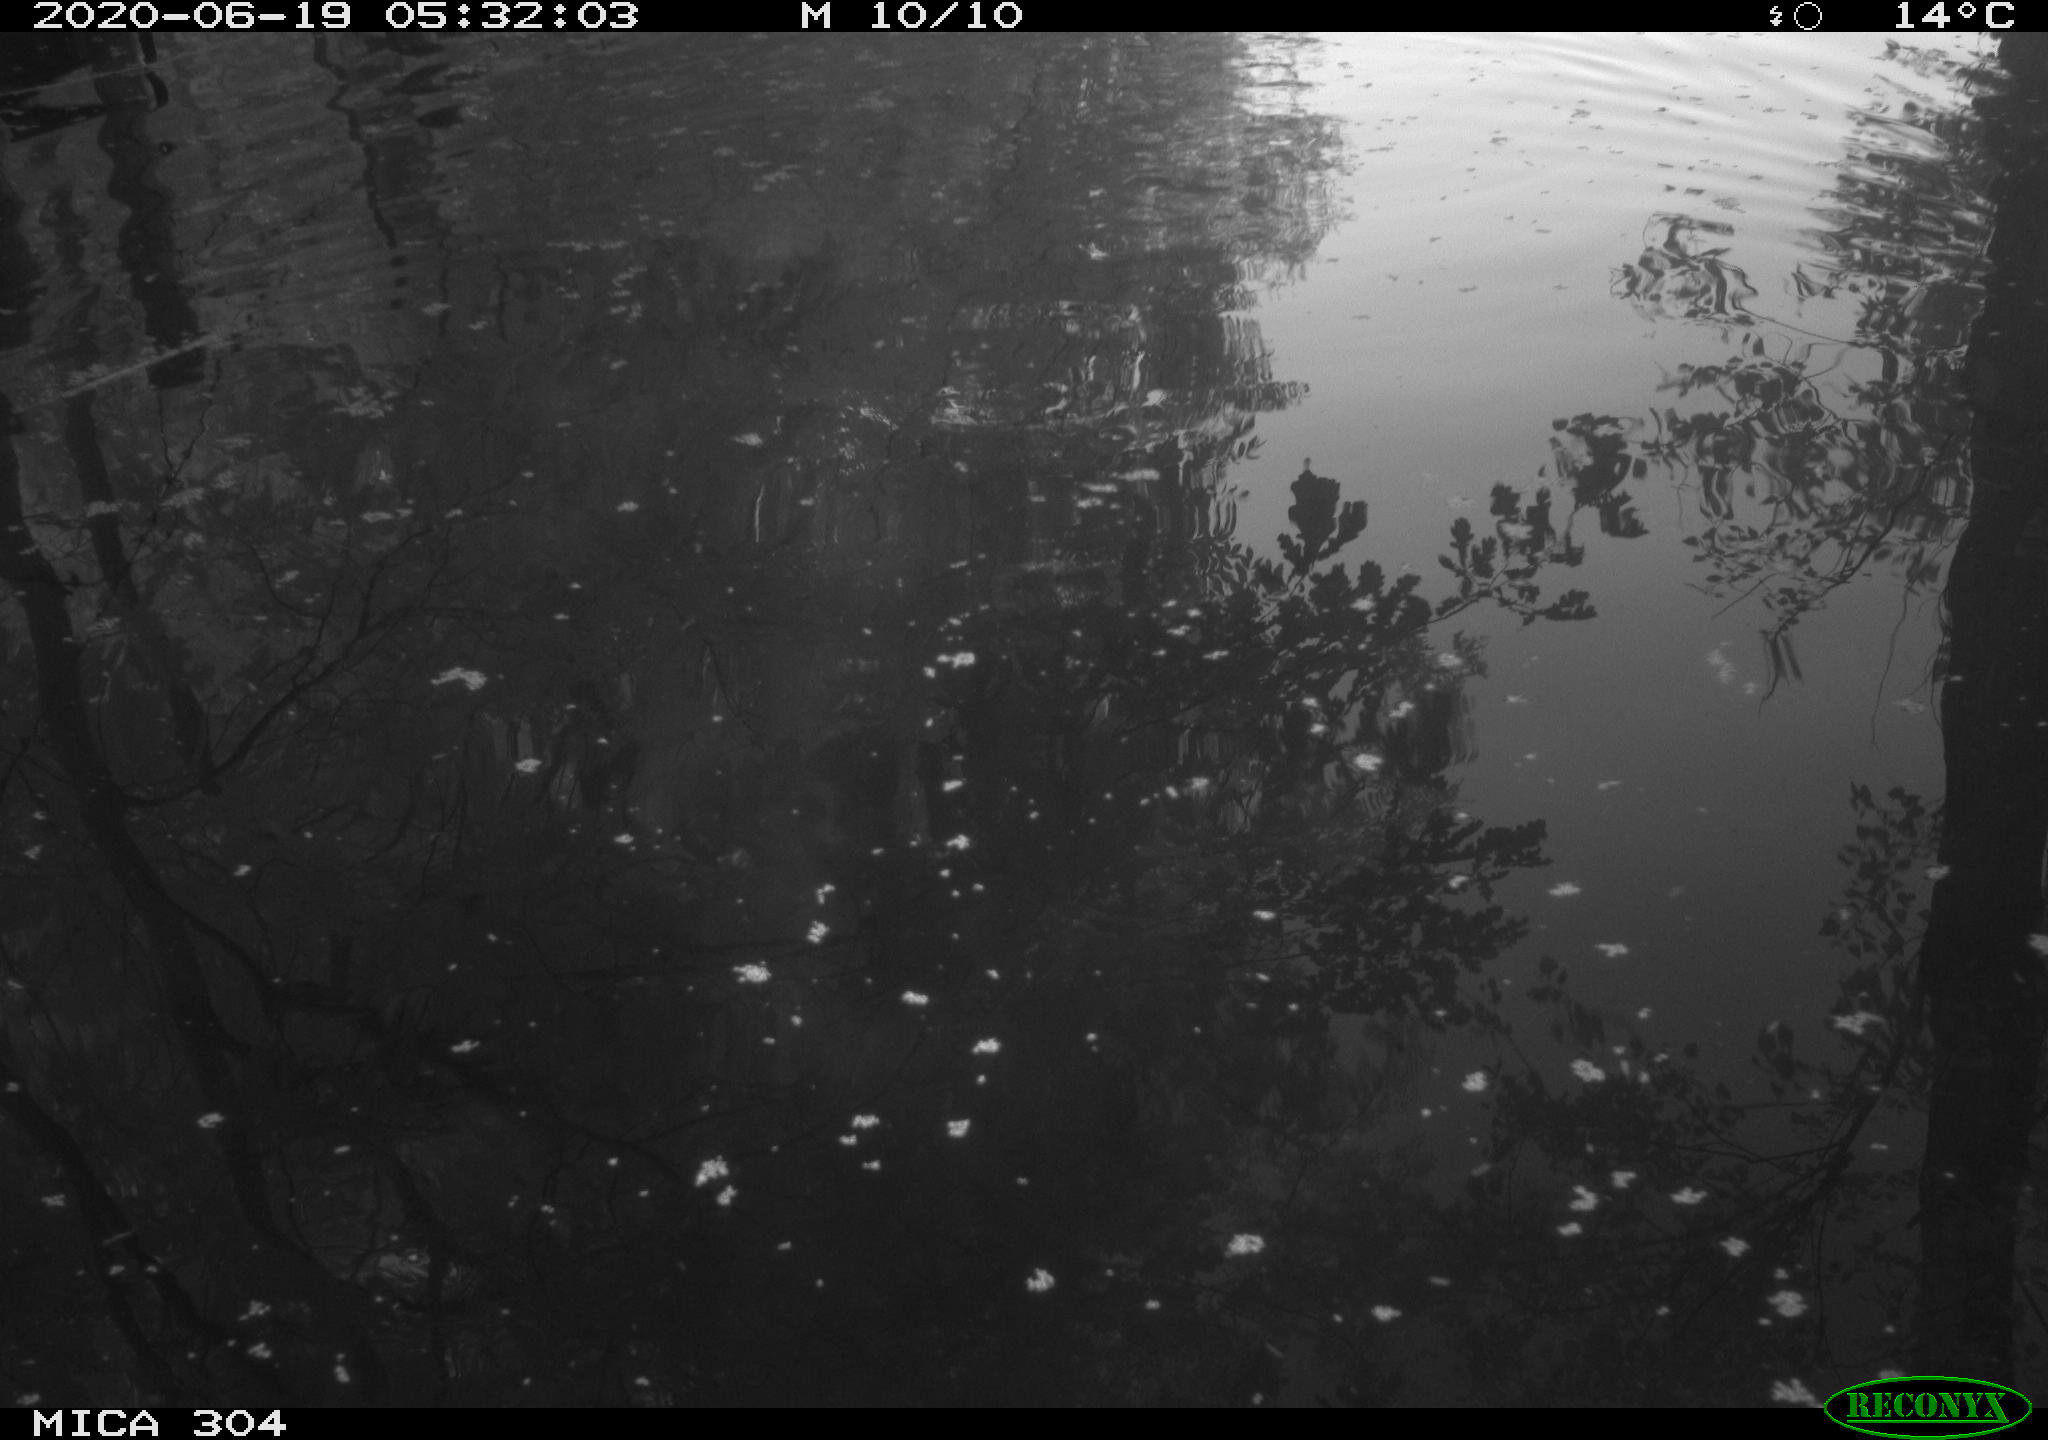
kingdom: Animalia
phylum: Chordata
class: Aves
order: Gruiformes
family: Rallidae
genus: Gallinula
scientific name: Gallinula chloropus
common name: Common moorhen
